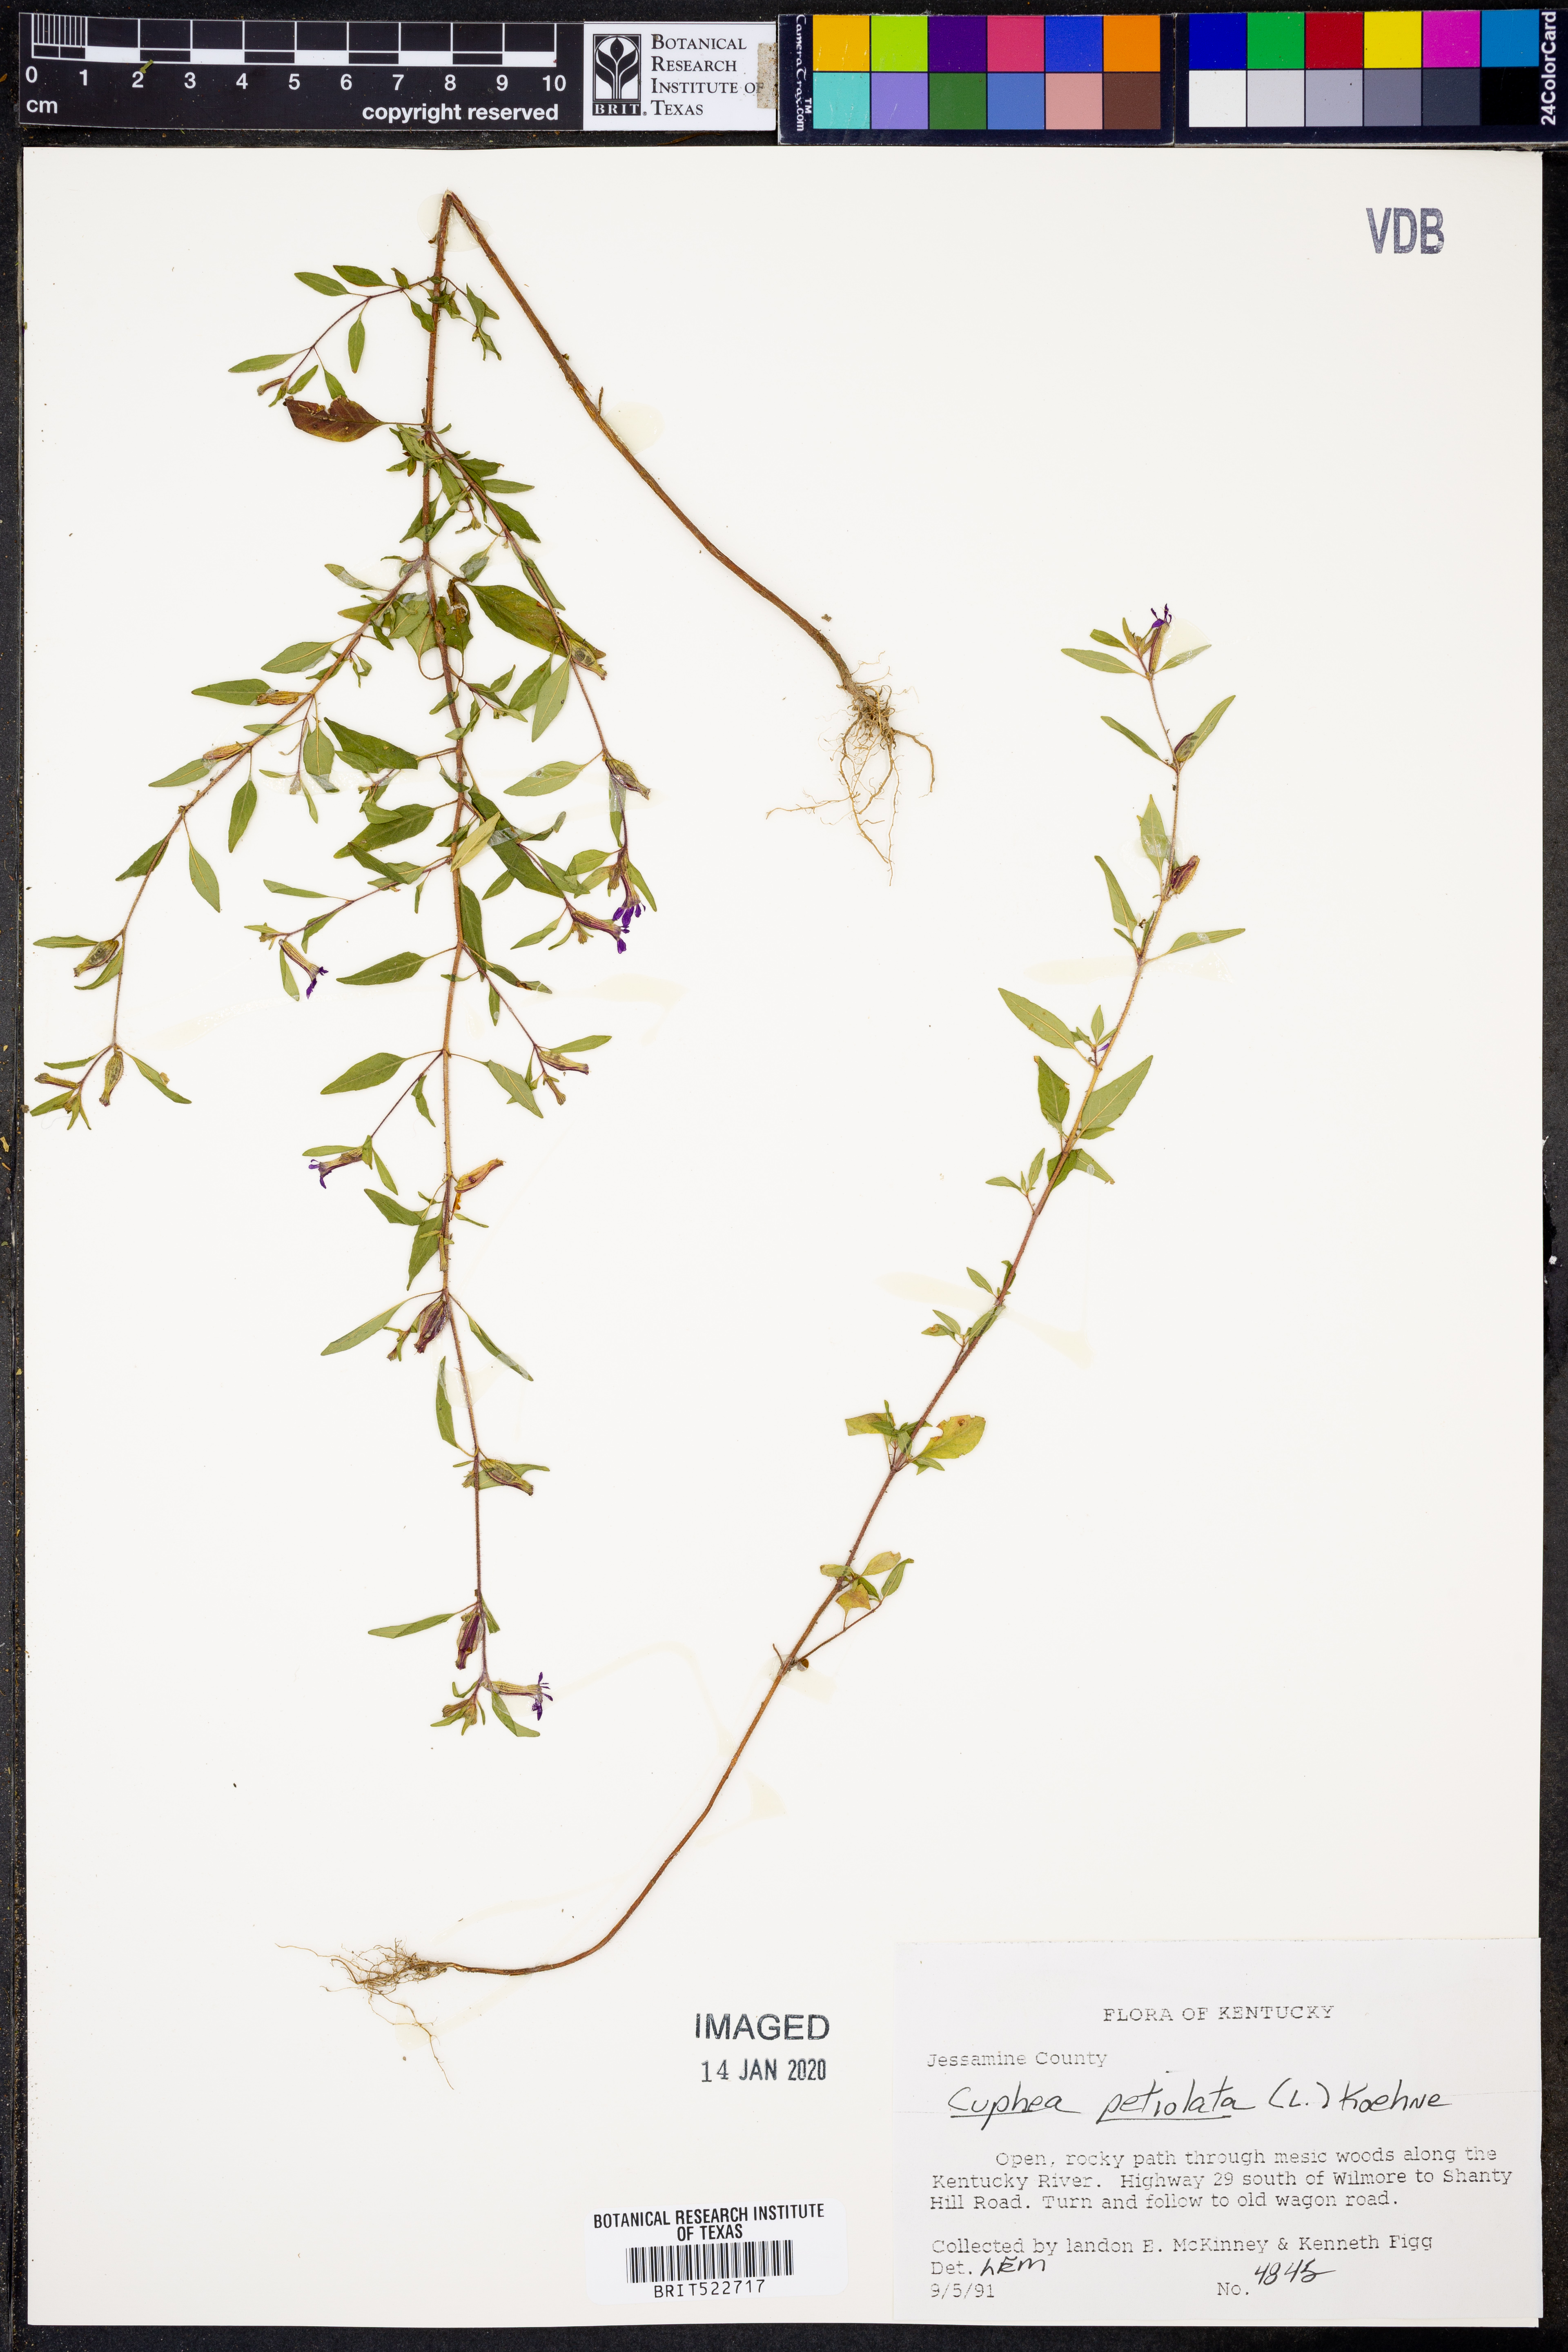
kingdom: Plantae
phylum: Tracheophyta
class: Magnoliopsida
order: Myrtales
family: Lythraceae
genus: Cuphea
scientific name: Cuphea viscosissima
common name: Clammy cuphea
